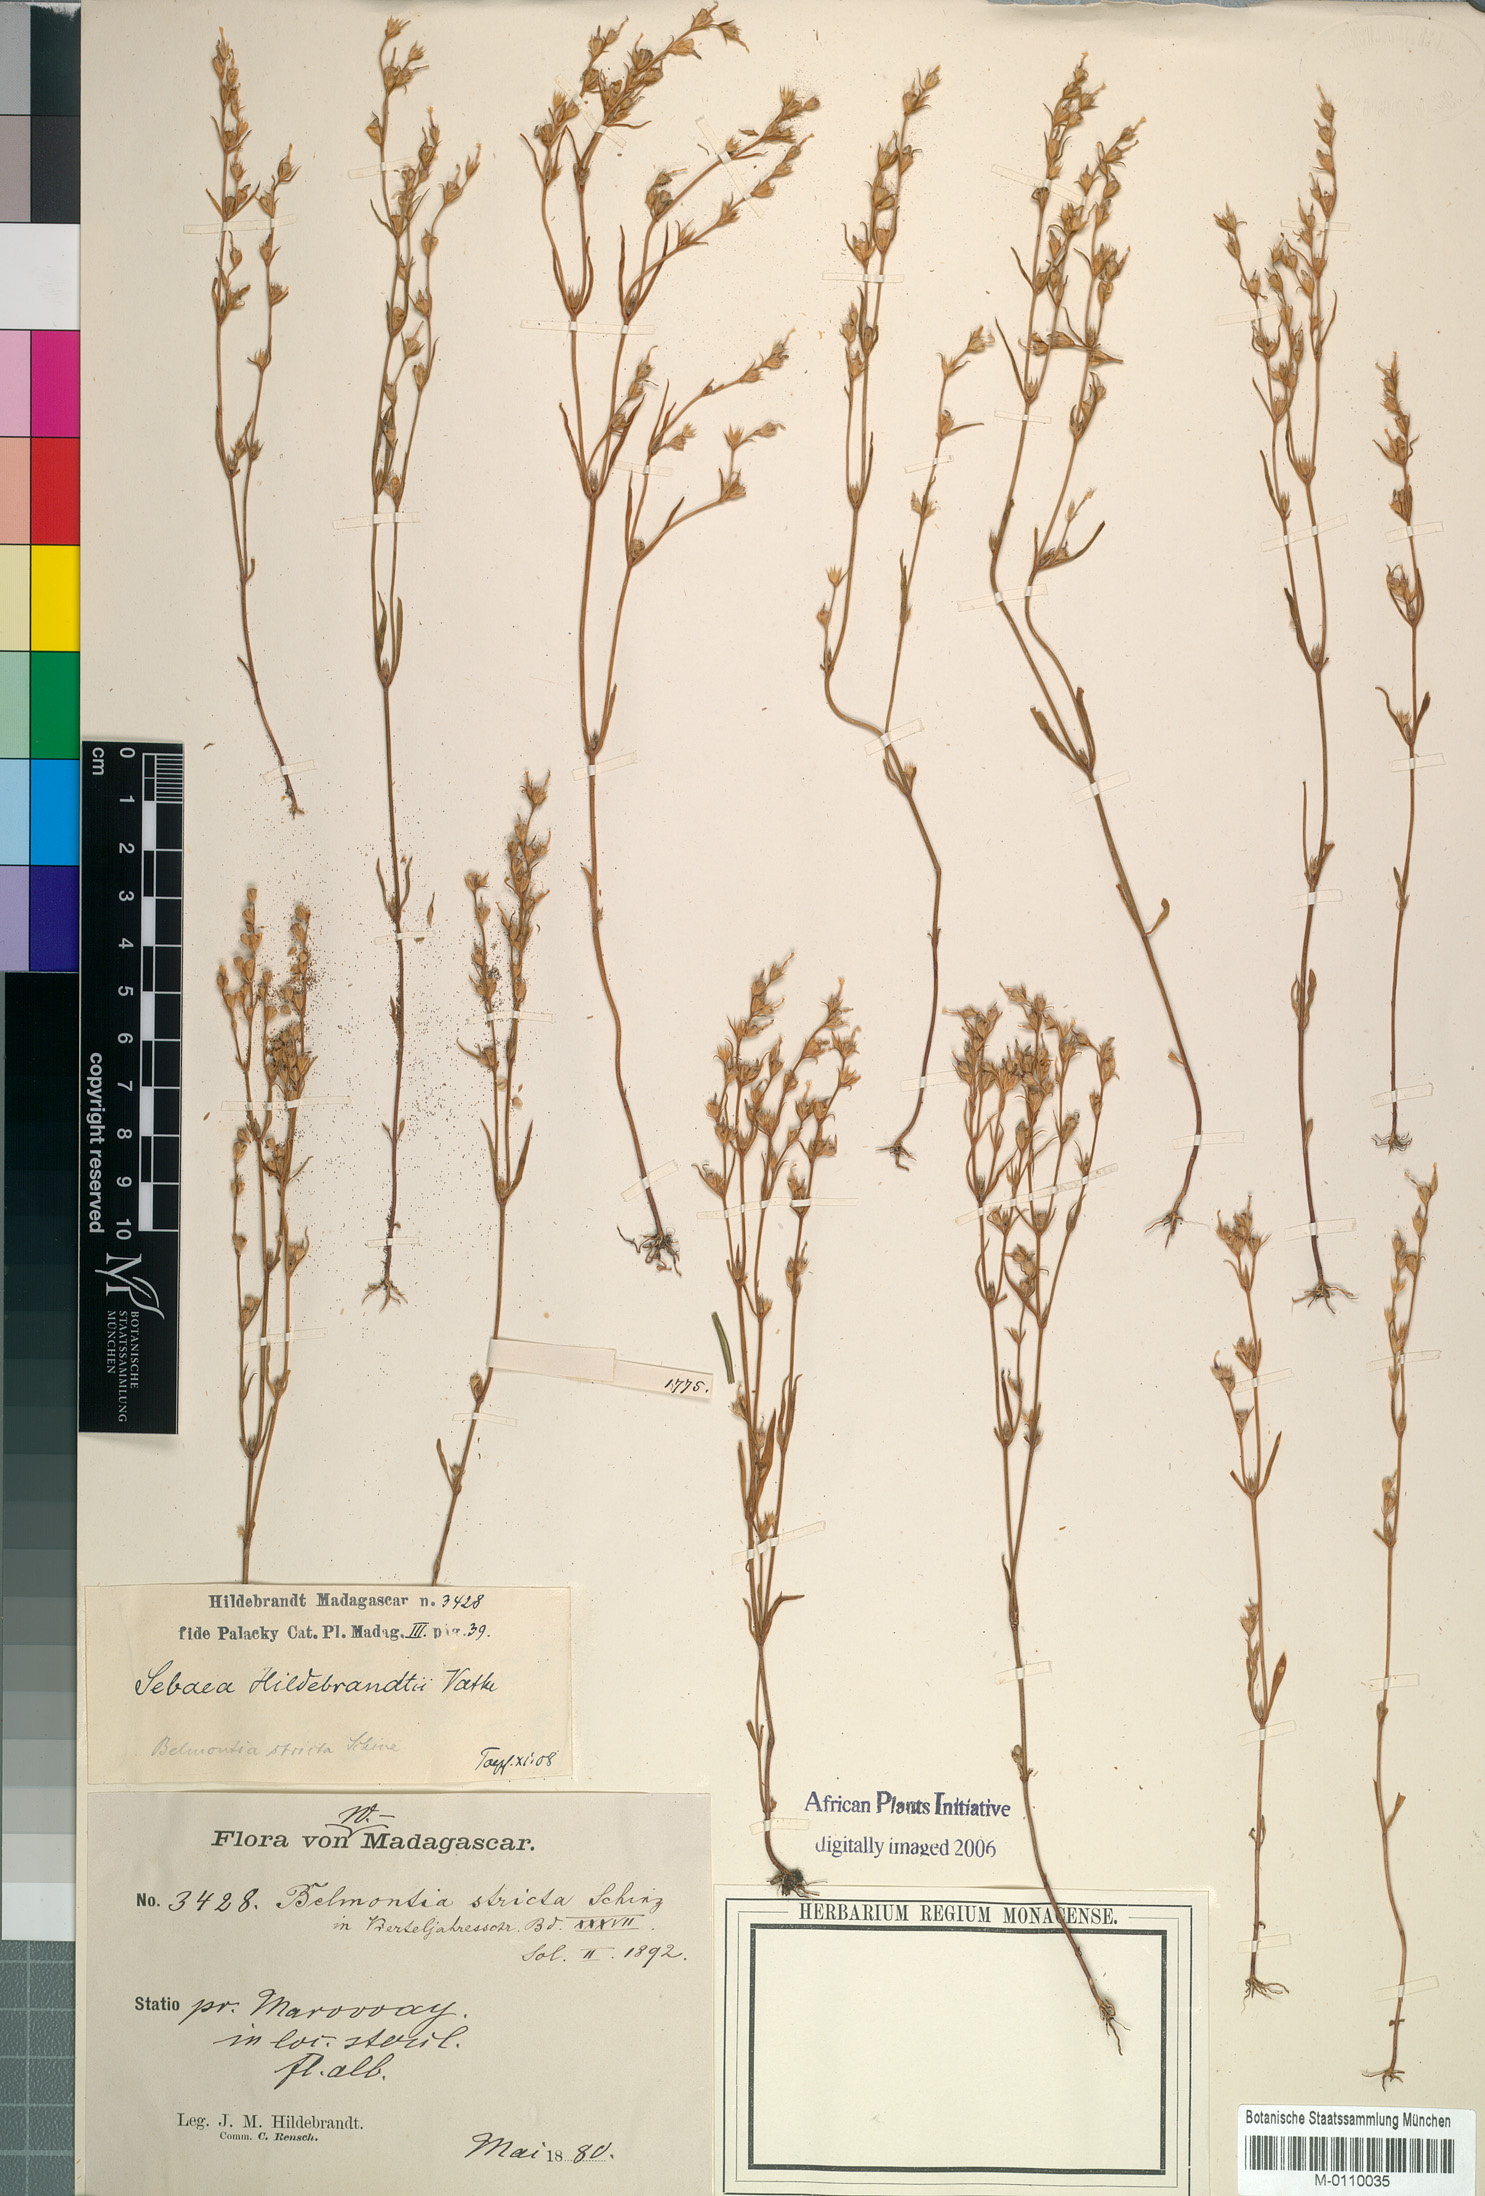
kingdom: Plantae
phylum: Tracheophyta
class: Magnoliopsida
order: Gentianales
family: Gentianaceae
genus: Klackenbergia
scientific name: Klackenbergia stricta
